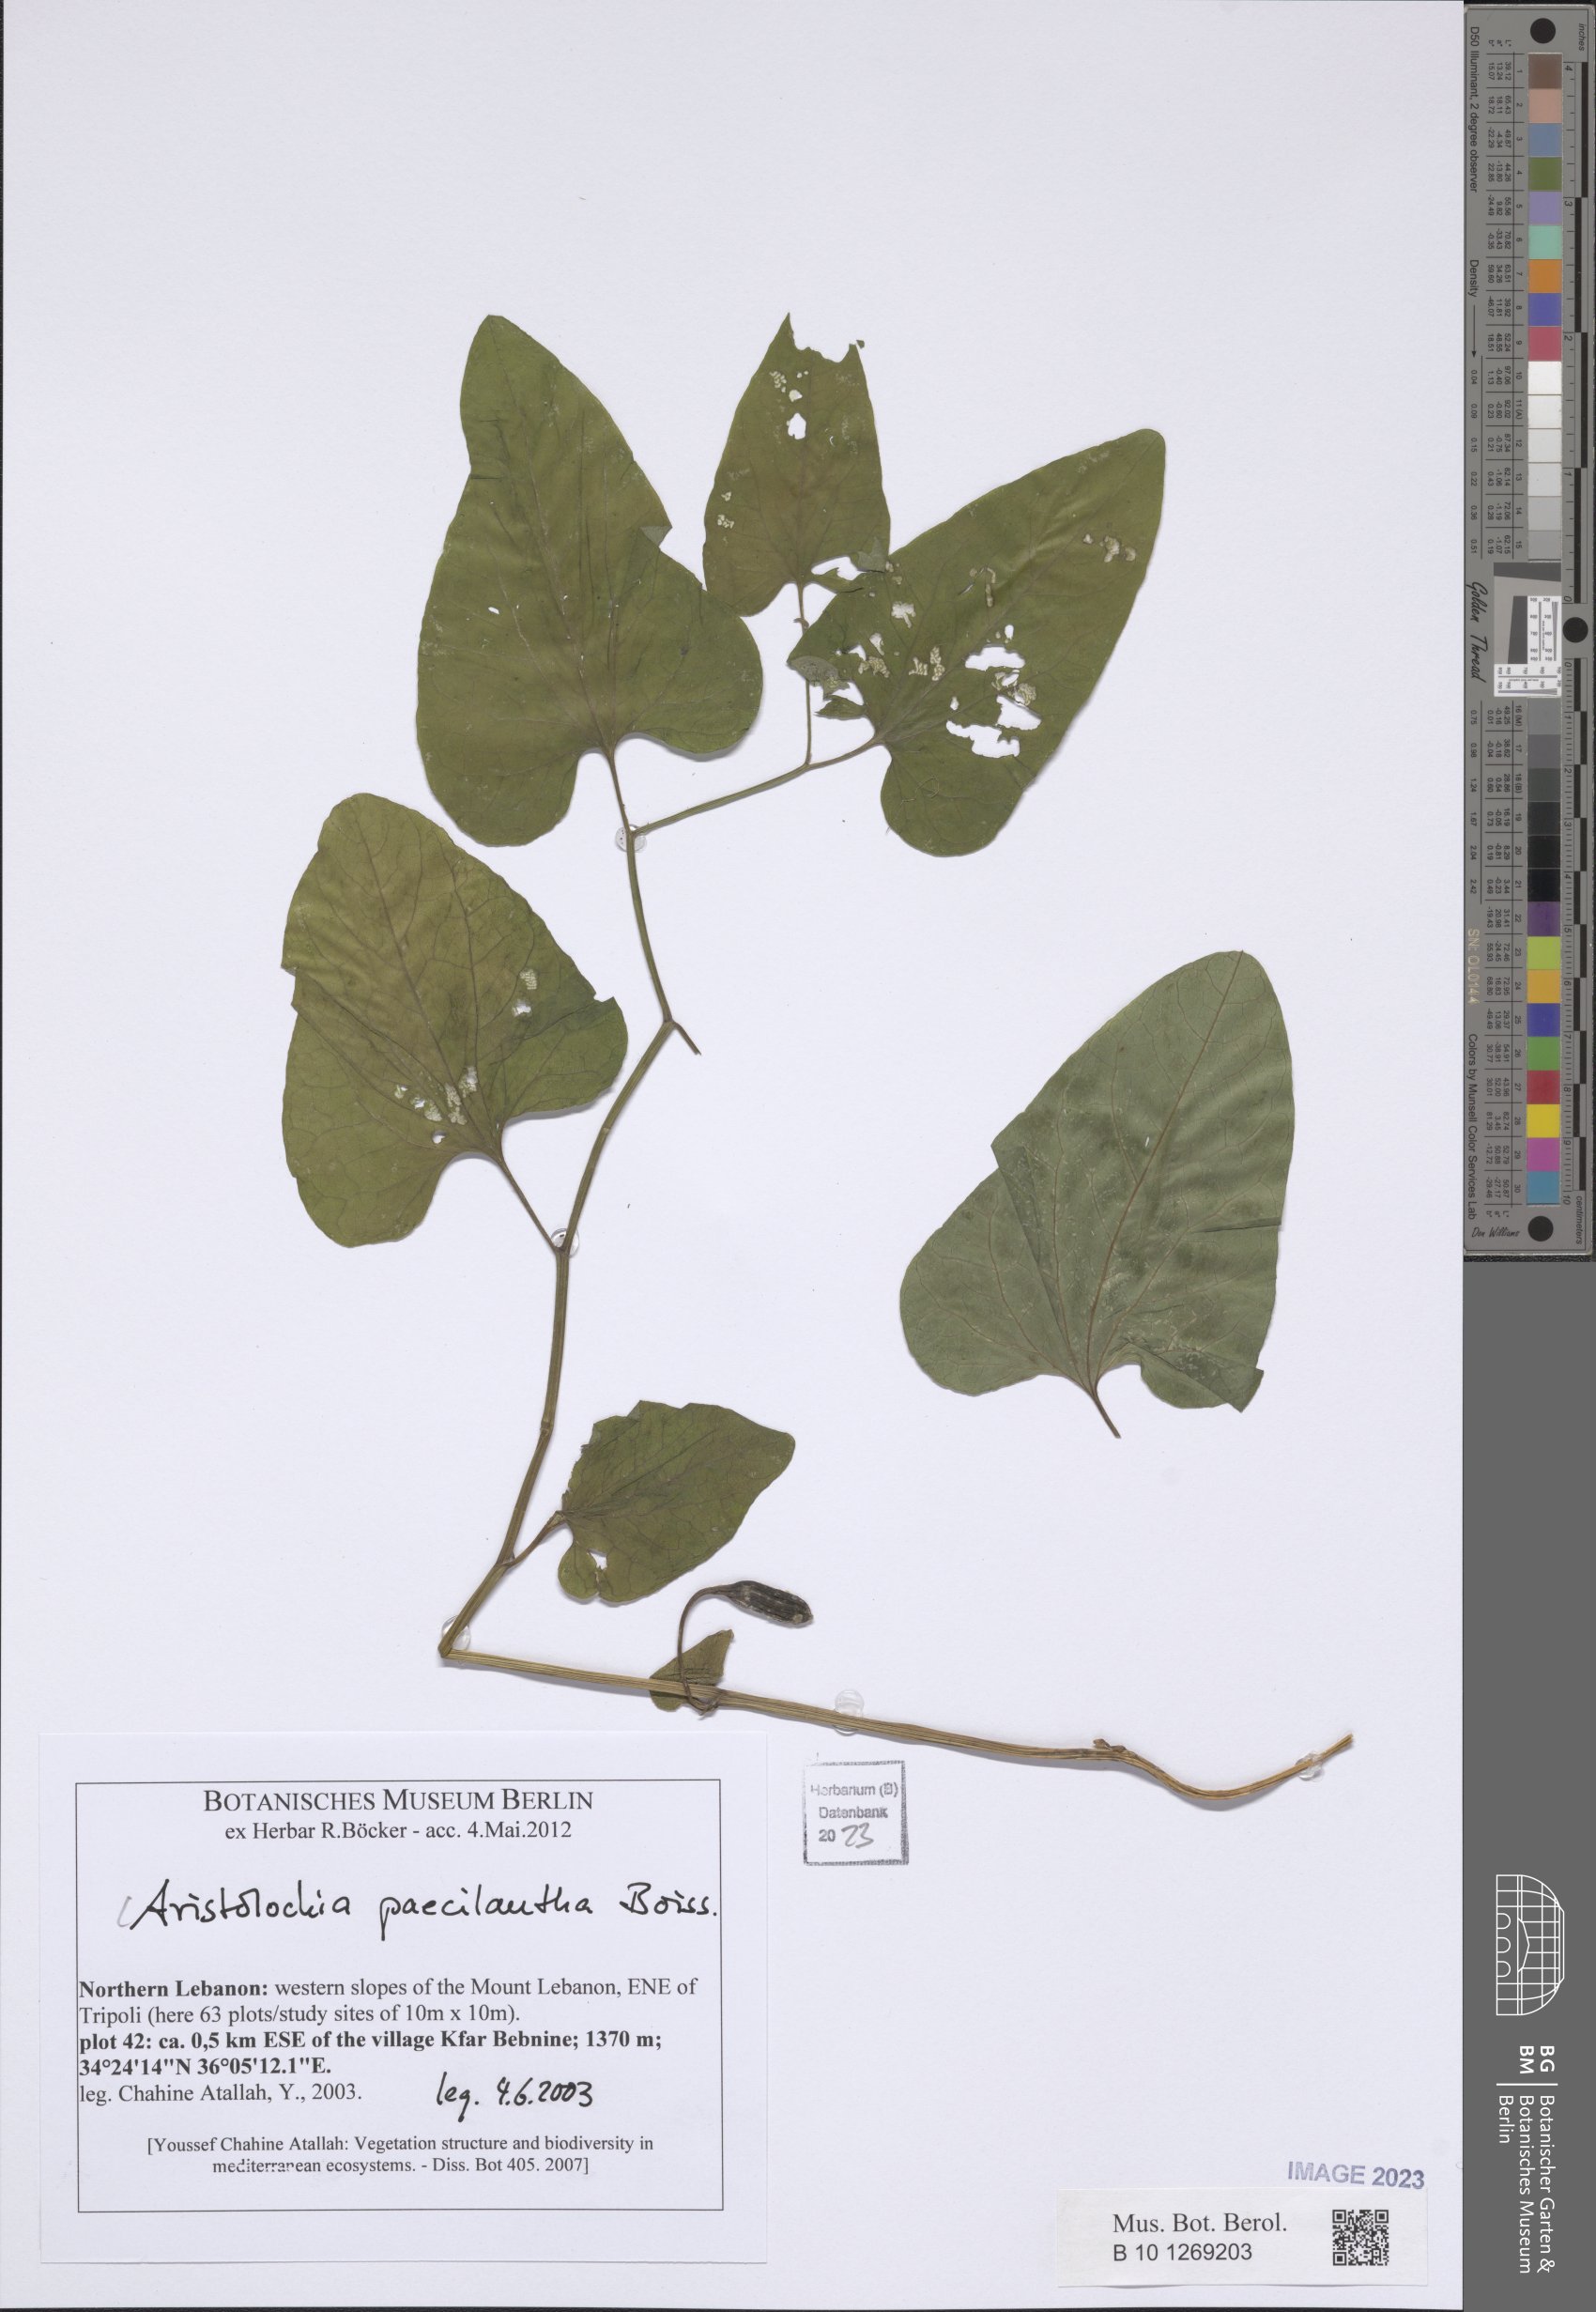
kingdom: Plantae
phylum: Tracheophyta
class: Magnoliopsida
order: Piperales
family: Aristolochiaceae
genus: Aristolochia
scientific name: Aristolochia paecilantha
